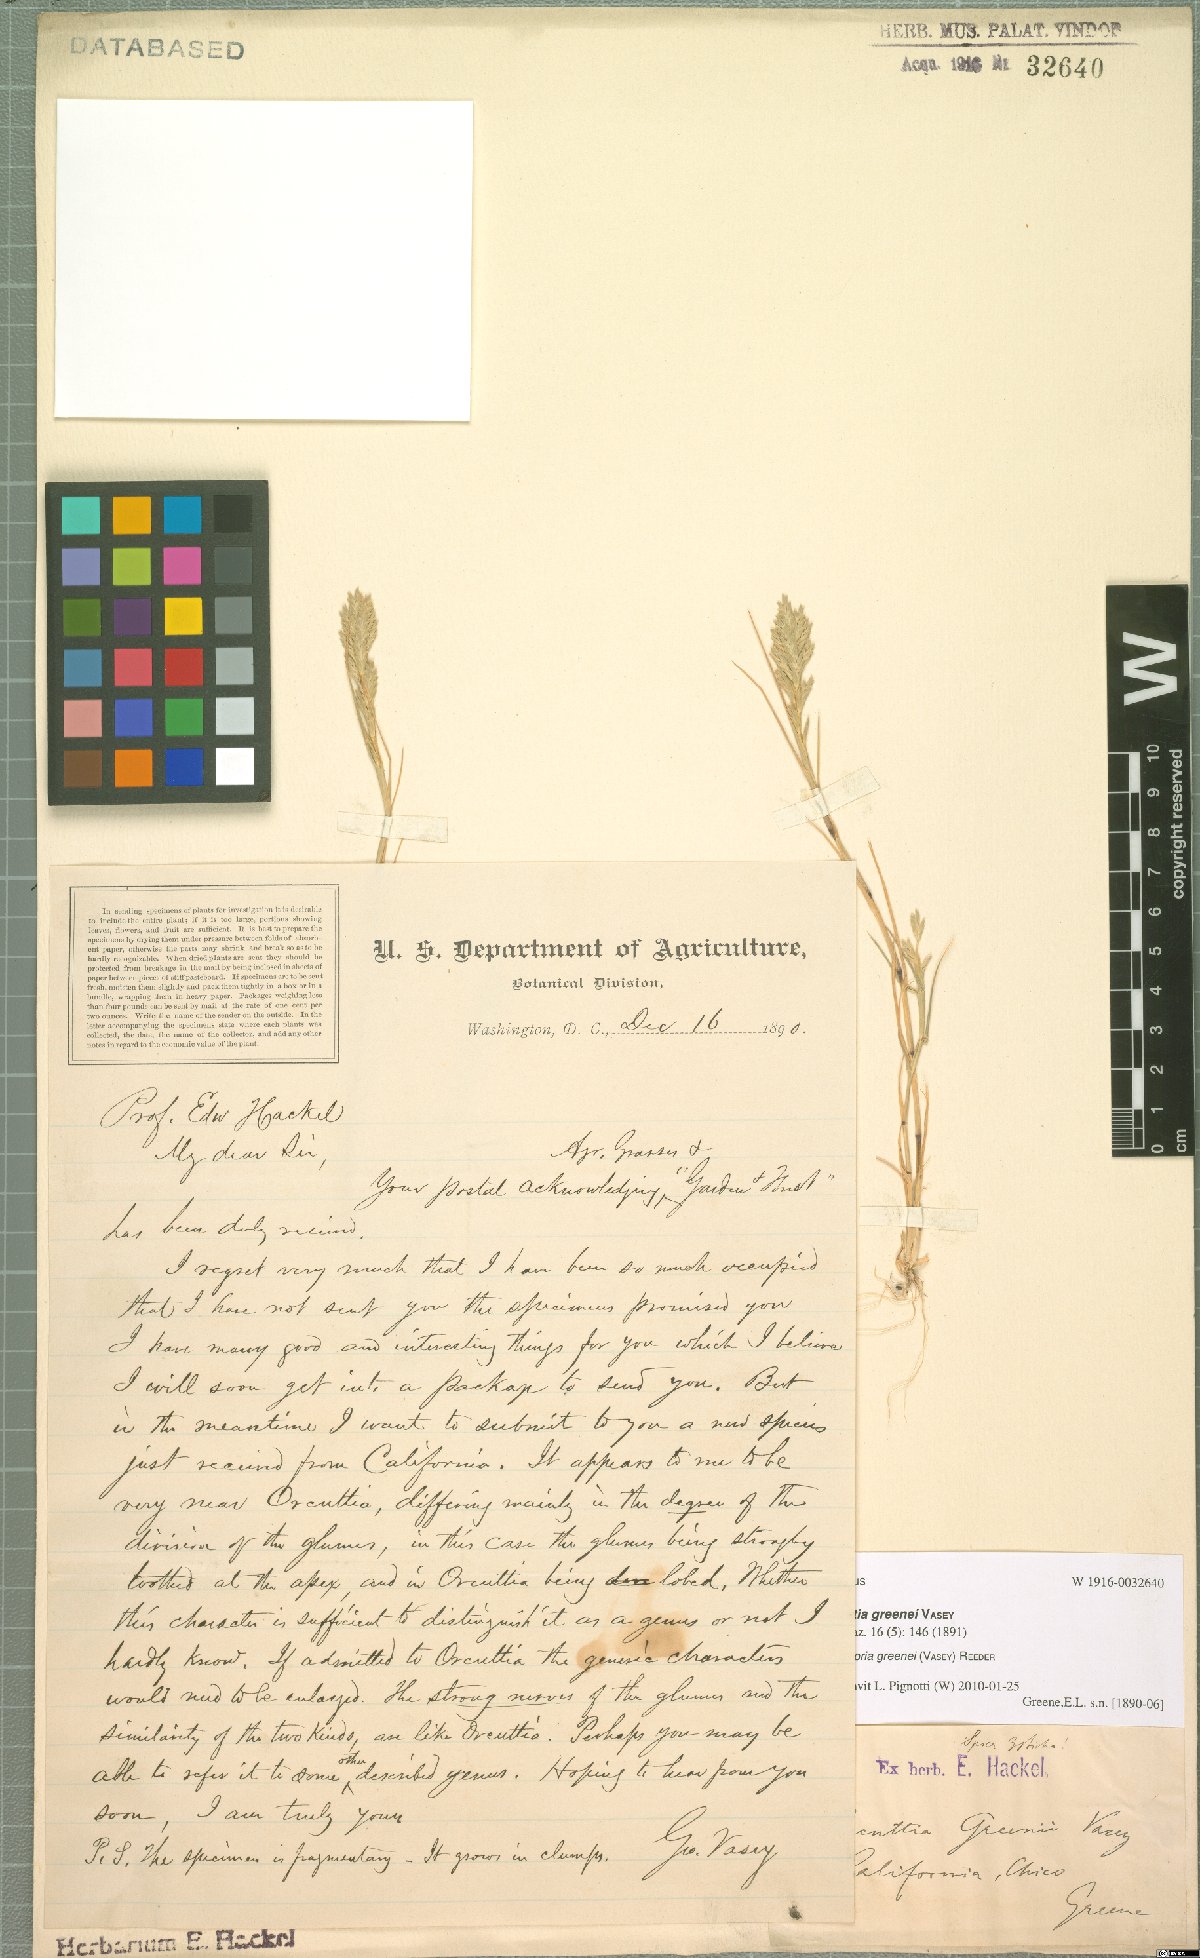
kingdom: Plantae
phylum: Tracheophyta
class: Liliopsida
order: Poales
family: Poaceae
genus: Tuctoria
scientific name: Tuctoria greenei
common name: Awnless spiral grass
